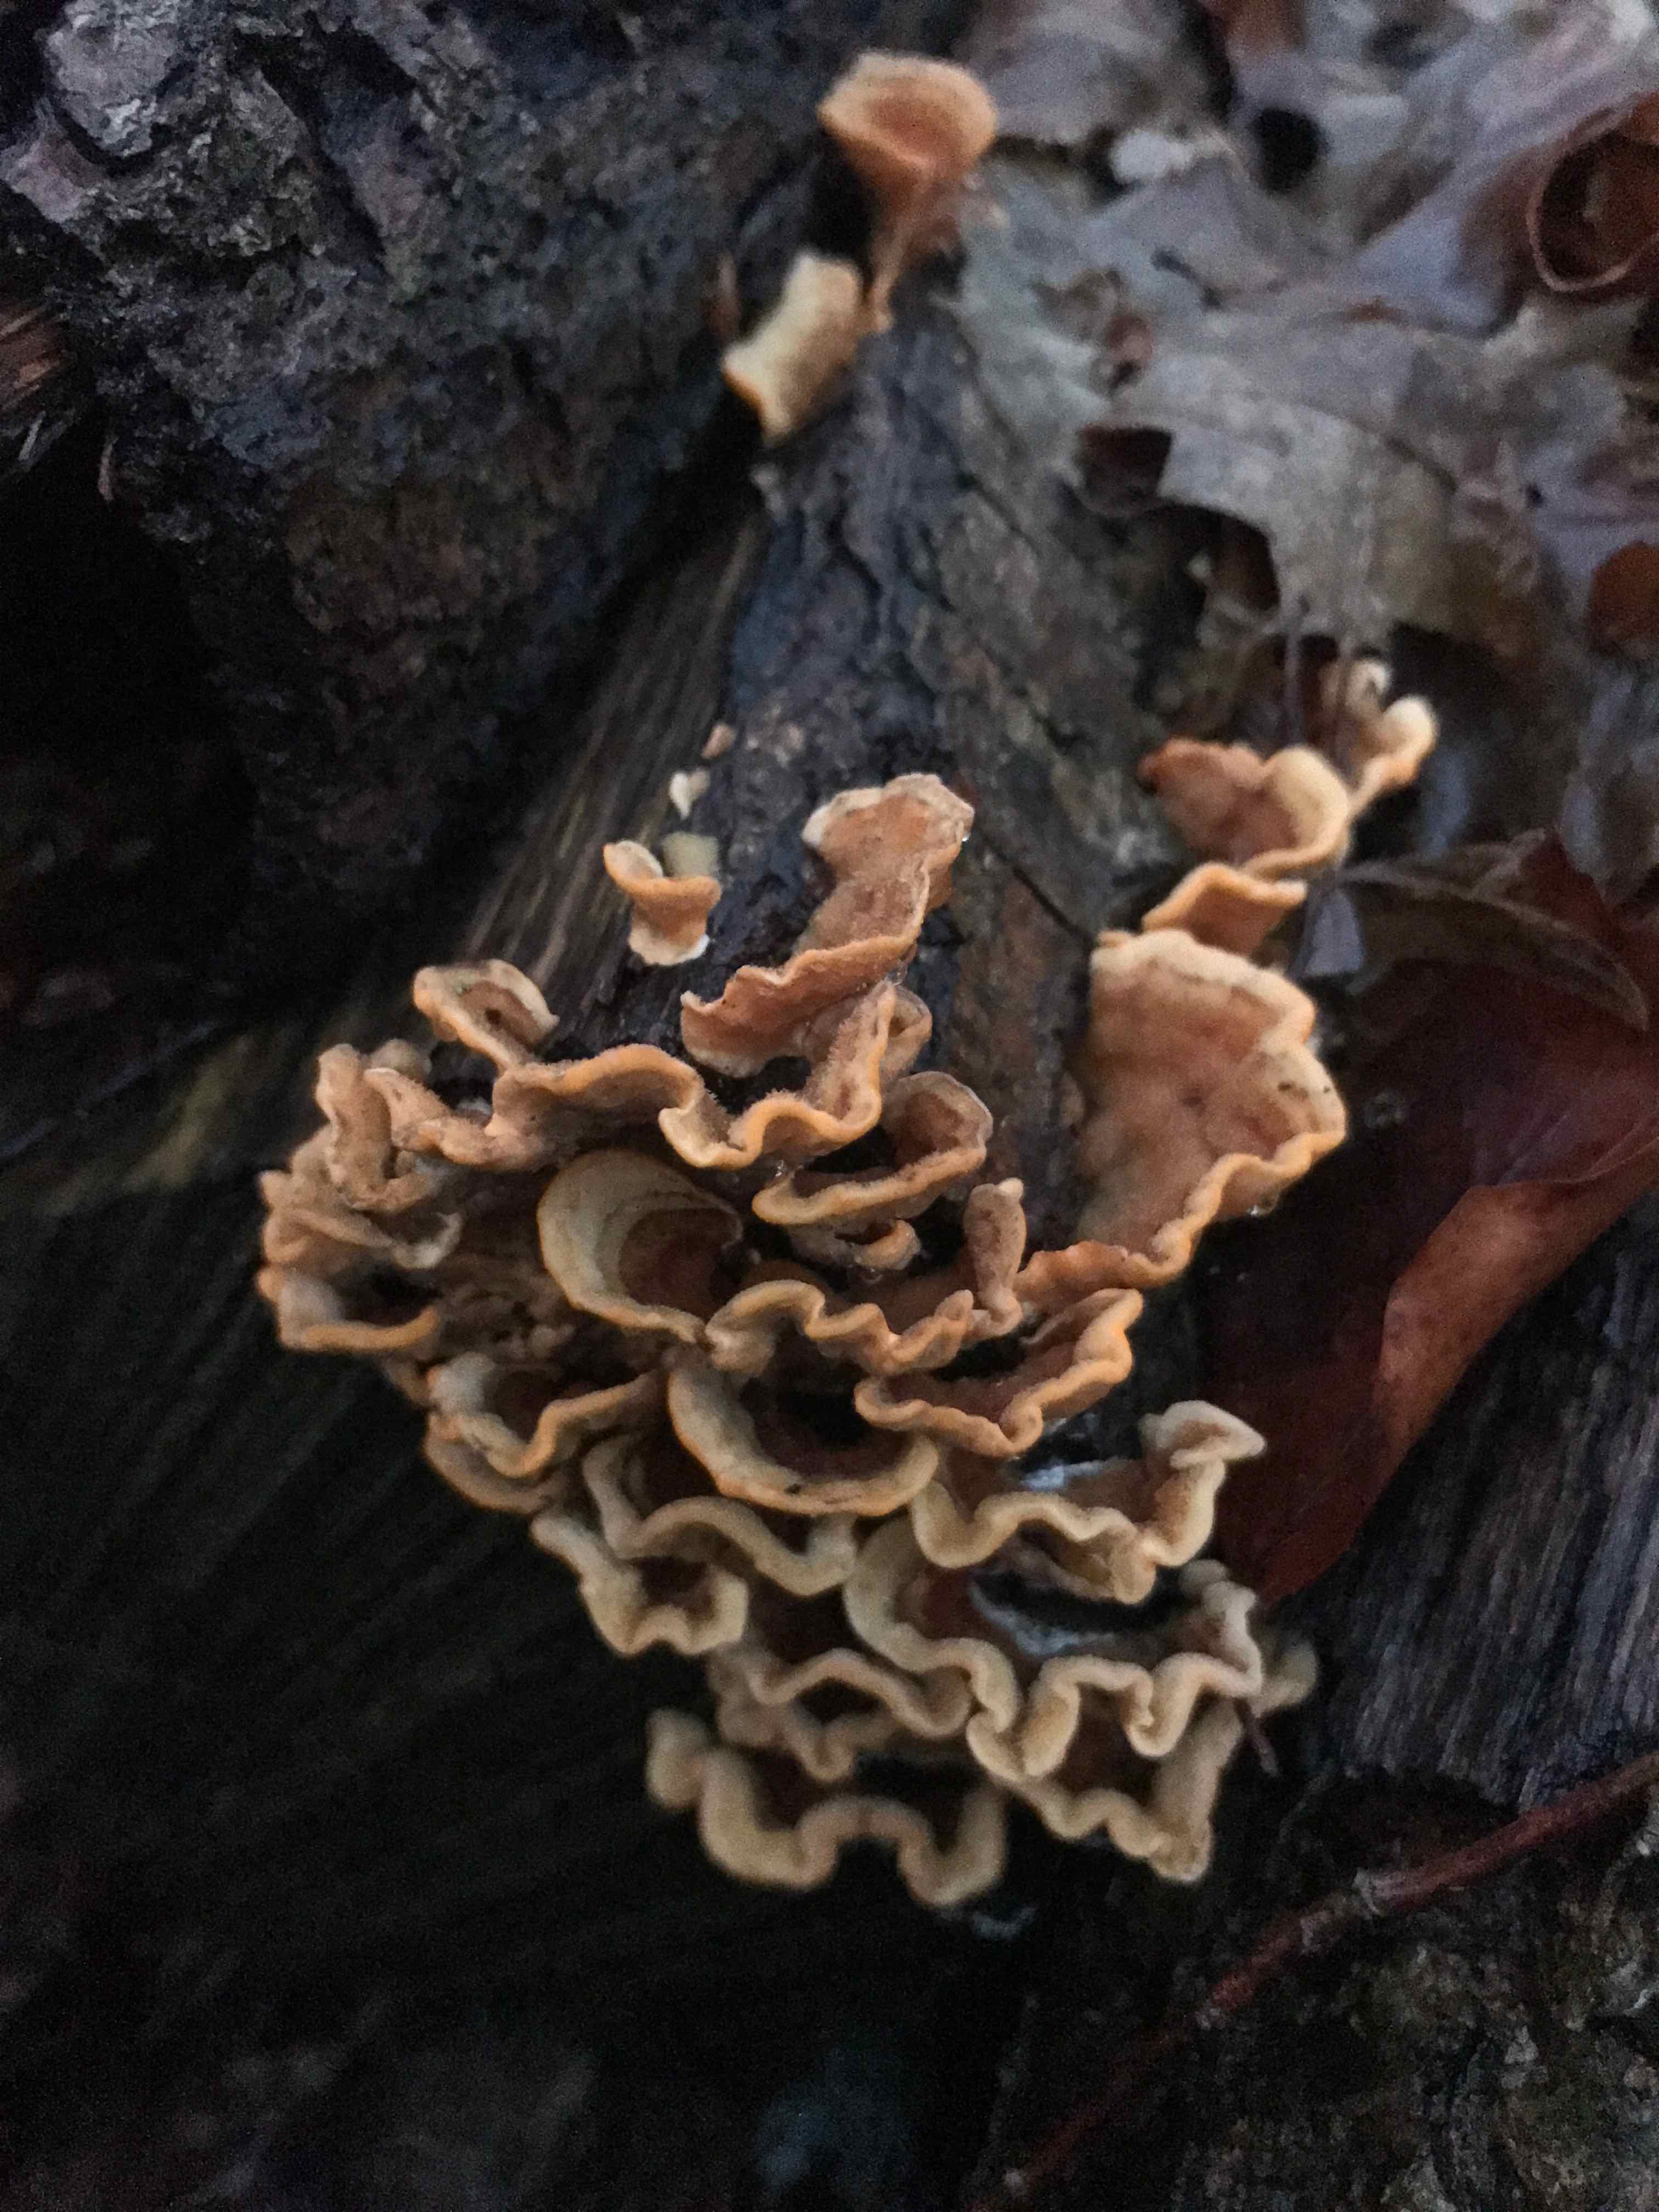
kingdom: Fungi
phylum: Basidiomycota
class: Agaricomycetes
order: Russulales
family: Stereaceae
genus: Stereum
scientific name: Stereum hirsutum
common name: håret lædersvamp
